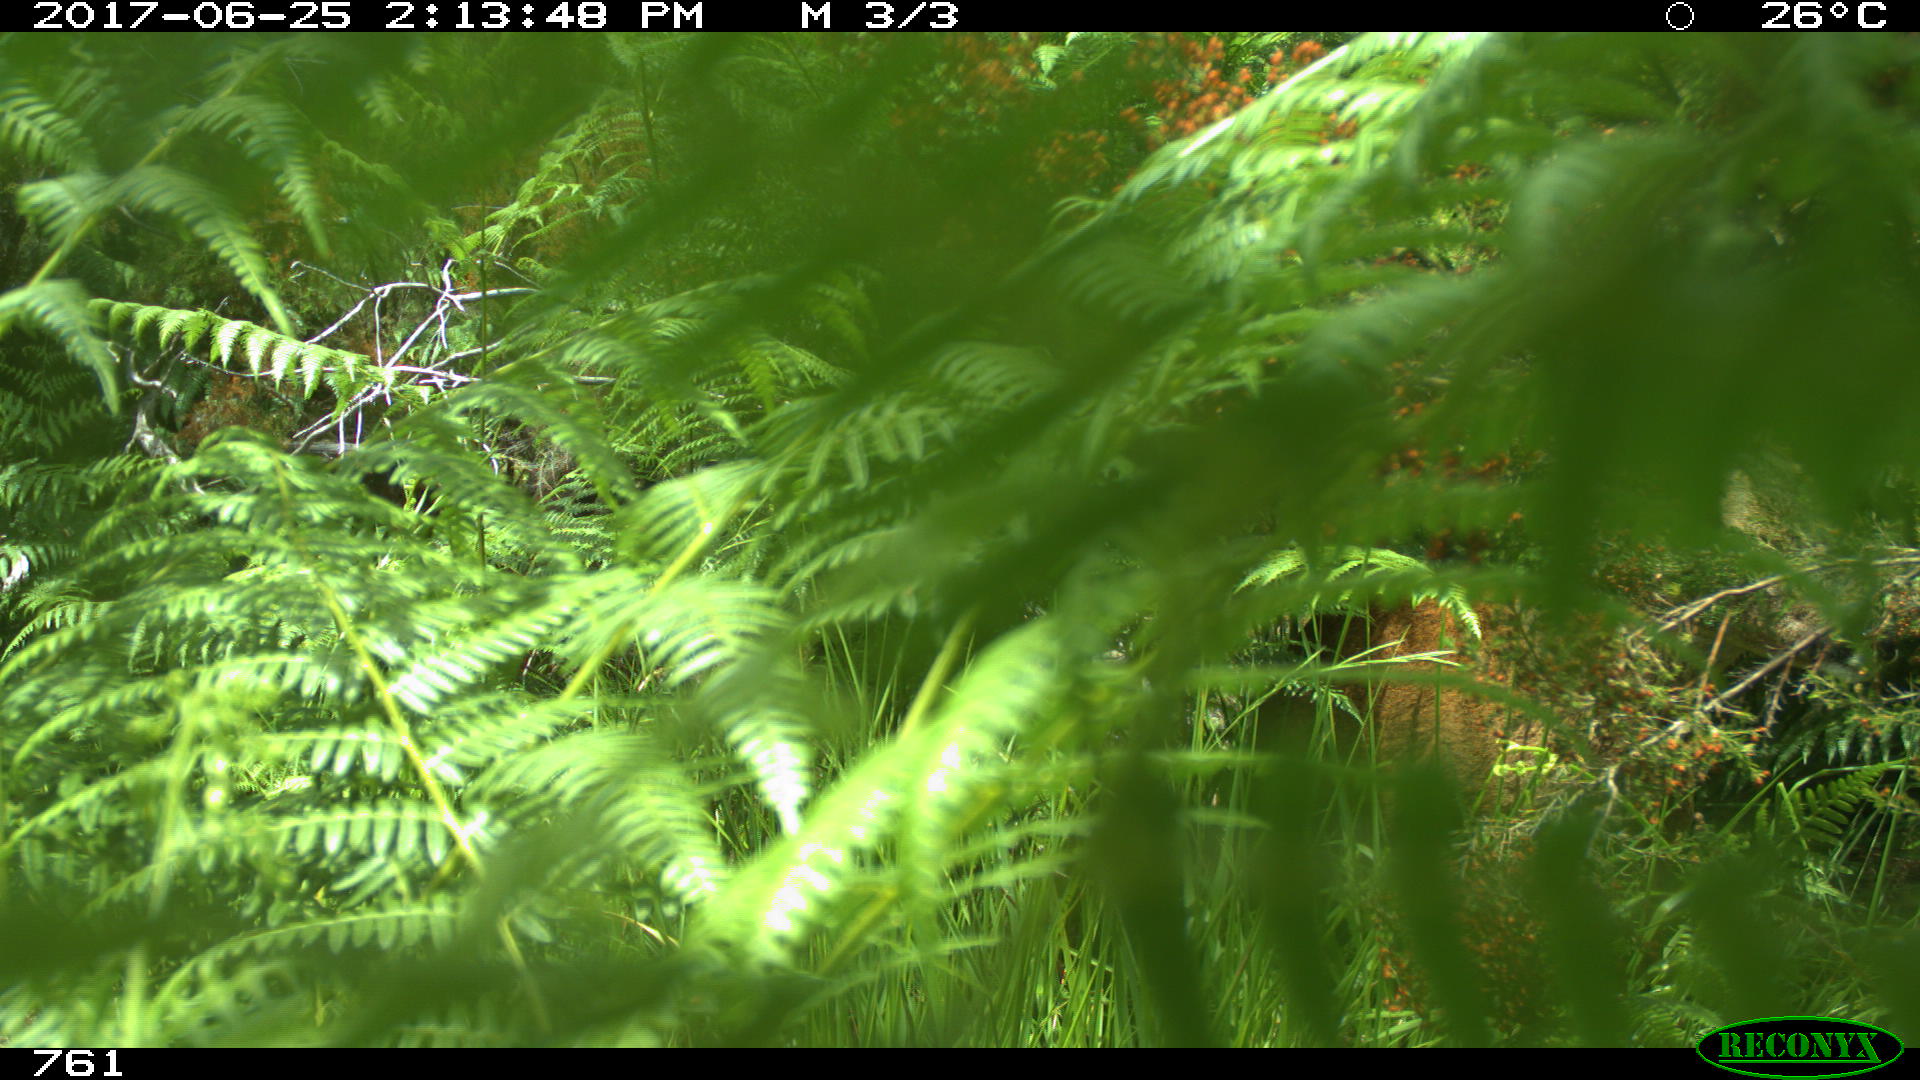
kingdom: Animalia
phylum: Chordata
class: Mammalia
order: Artiodactyla
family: Cervidae
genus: Capreolus
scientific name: Capreolus capreolus
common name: Western roe deer
